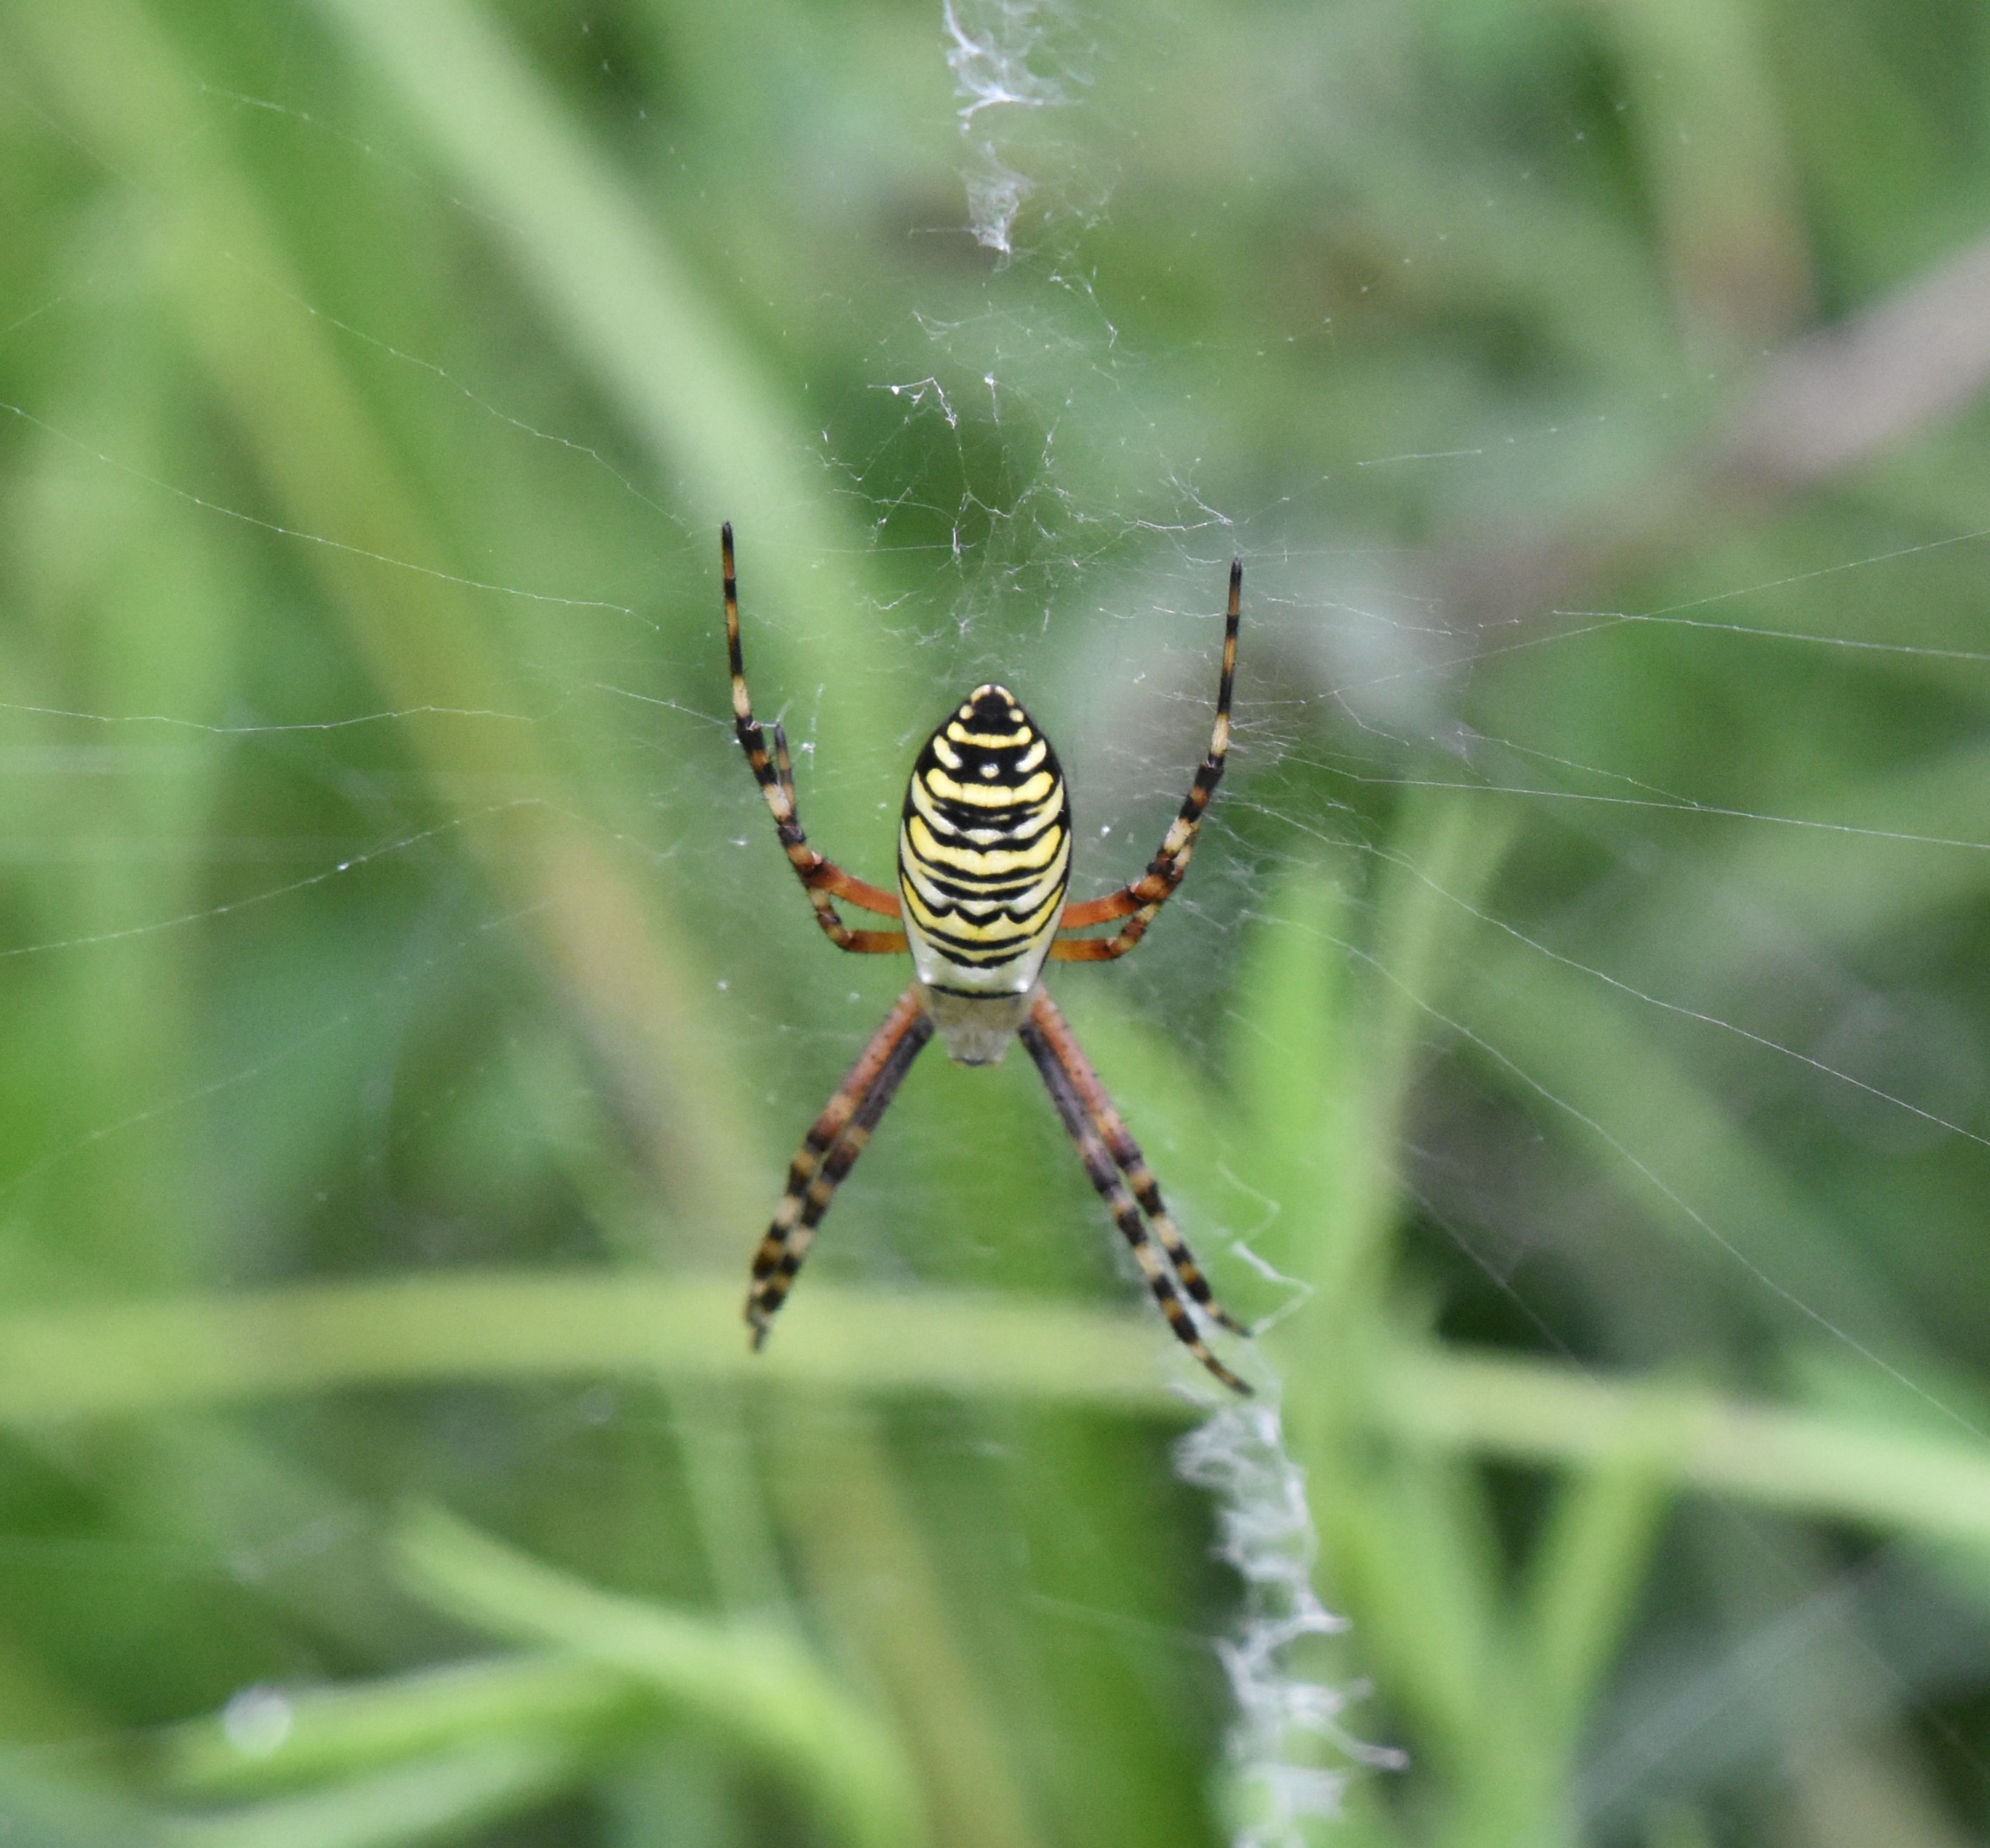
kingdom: Animalia
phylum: Arthropoda
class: Arachnida
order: Araneae
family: Araneidae
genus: Argiope
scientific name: Argiope bruennichi
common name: Hvepseedderkop
